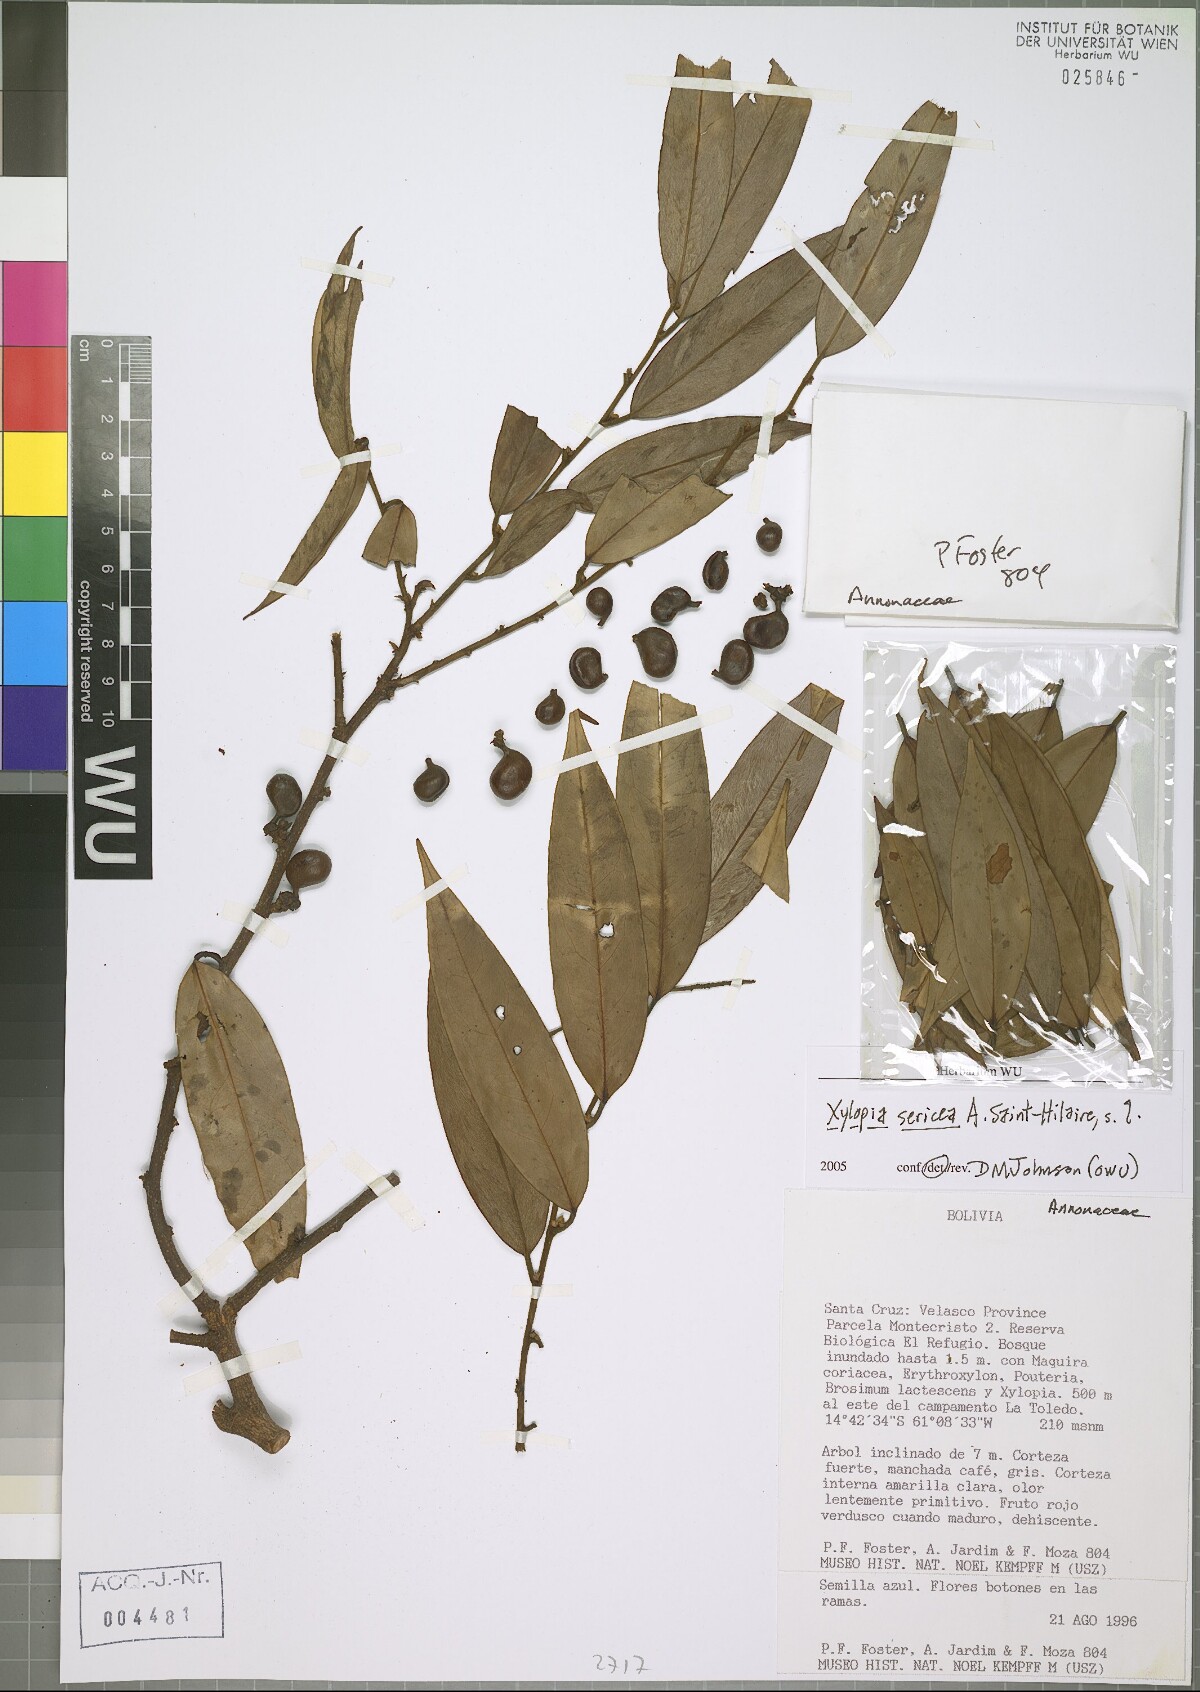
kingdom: Plantae
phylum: Tracheophyta
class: Magnoliopsida
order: Magnoliales
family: Annonaceae
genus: Xylopia
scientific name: Xylopia sericea
